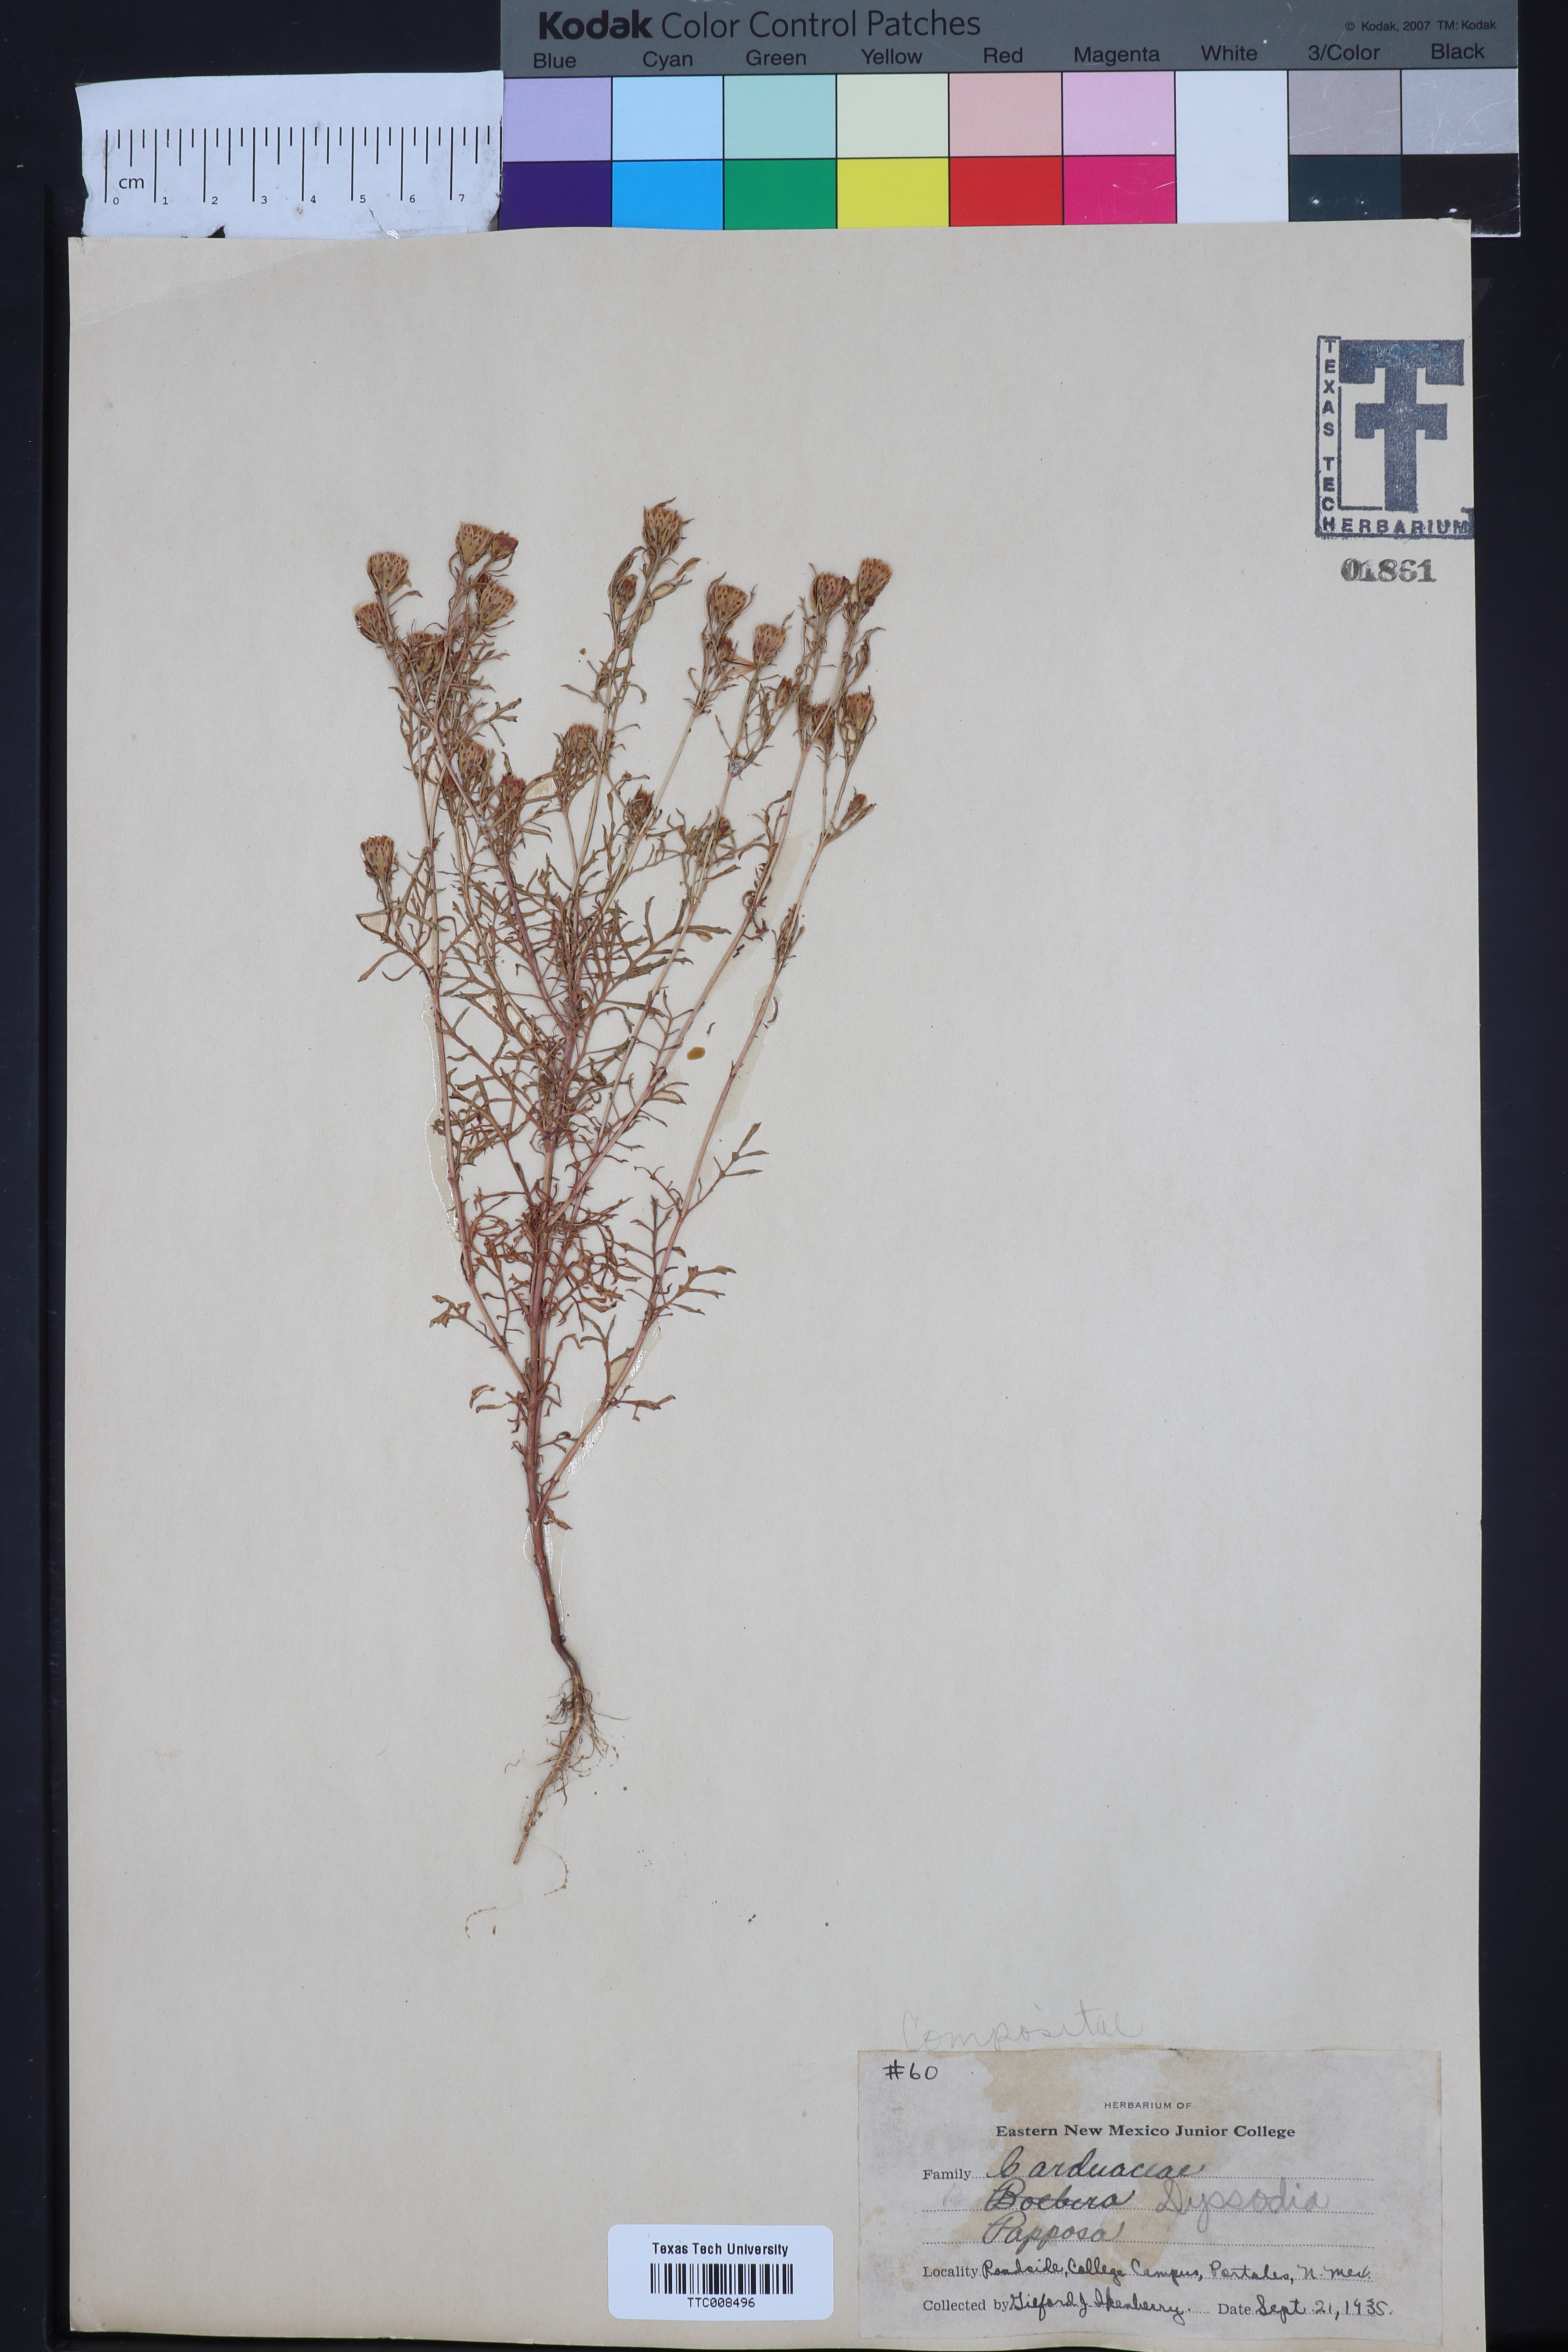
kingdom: Plantae
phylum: Tracheophyta
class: Magnoliopsida
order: Asterales
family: Asteraceae
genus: Dyssodia
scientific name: Dyssodia papposa
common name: Dogweed
